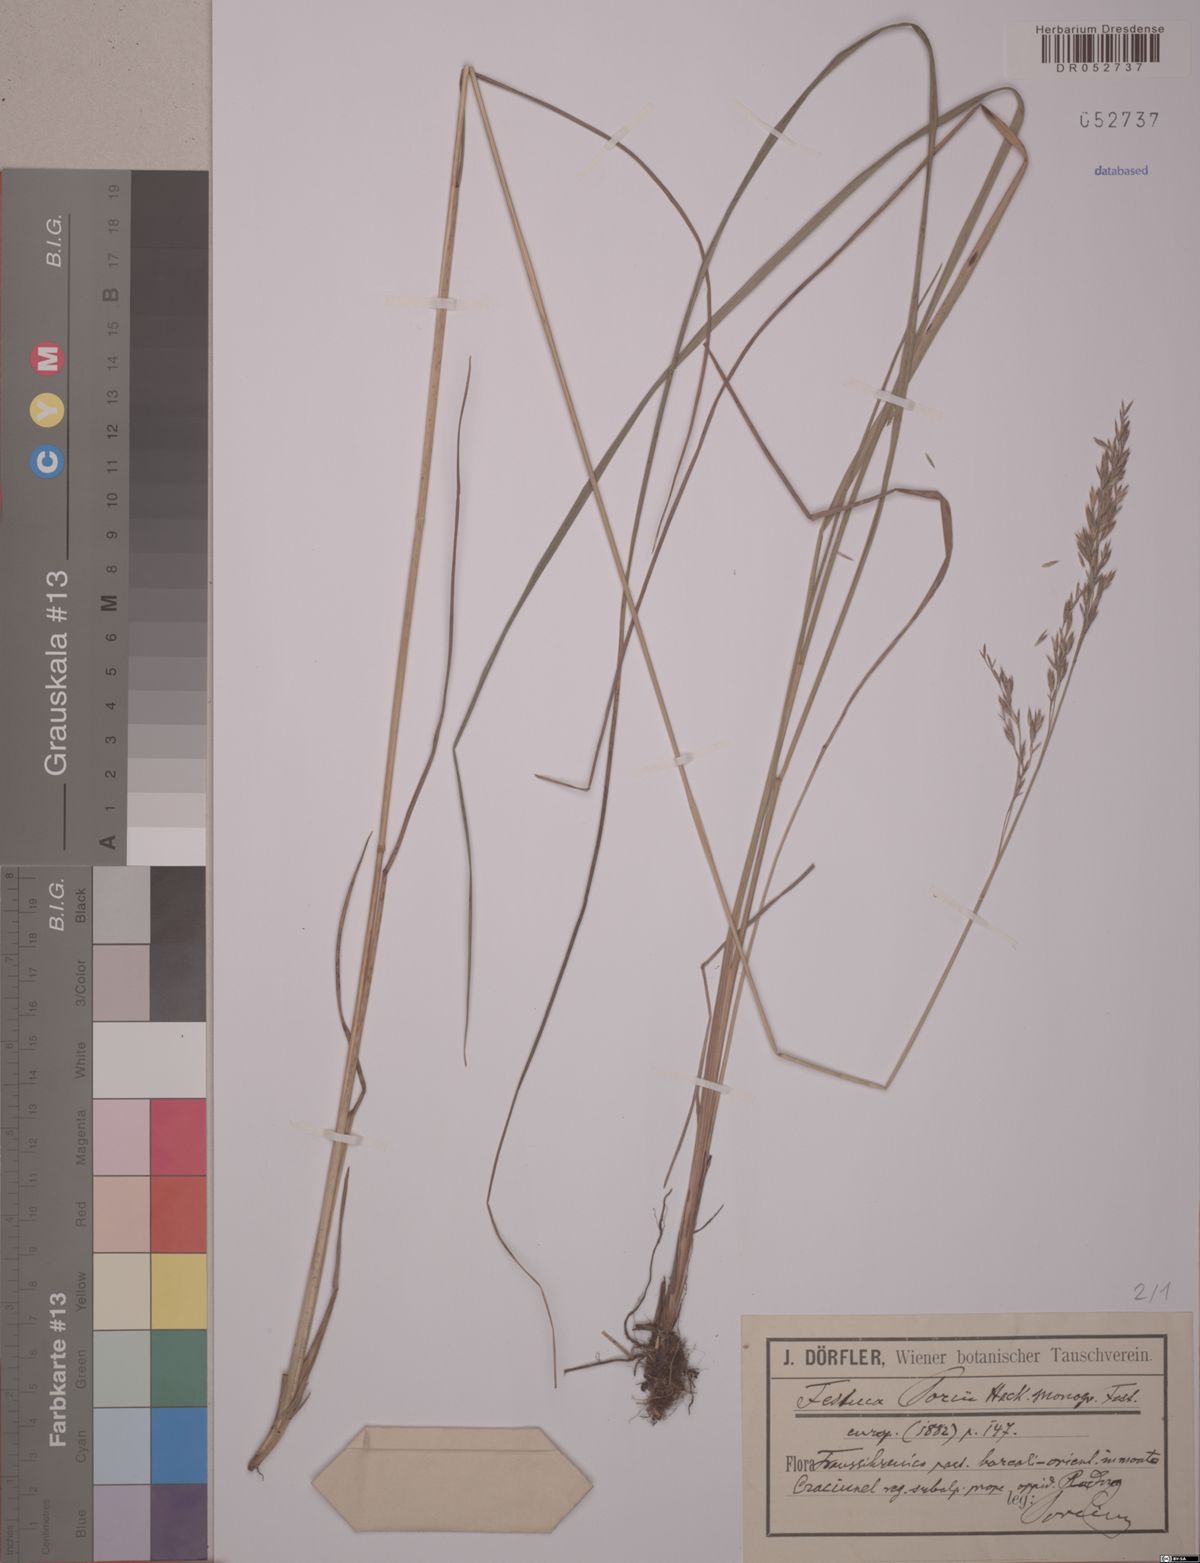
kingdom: Plantae
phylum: Tracheophyta
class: Liliopsida
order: Poales
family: Poaceae
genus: Festuca
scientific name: Festuca porcii
